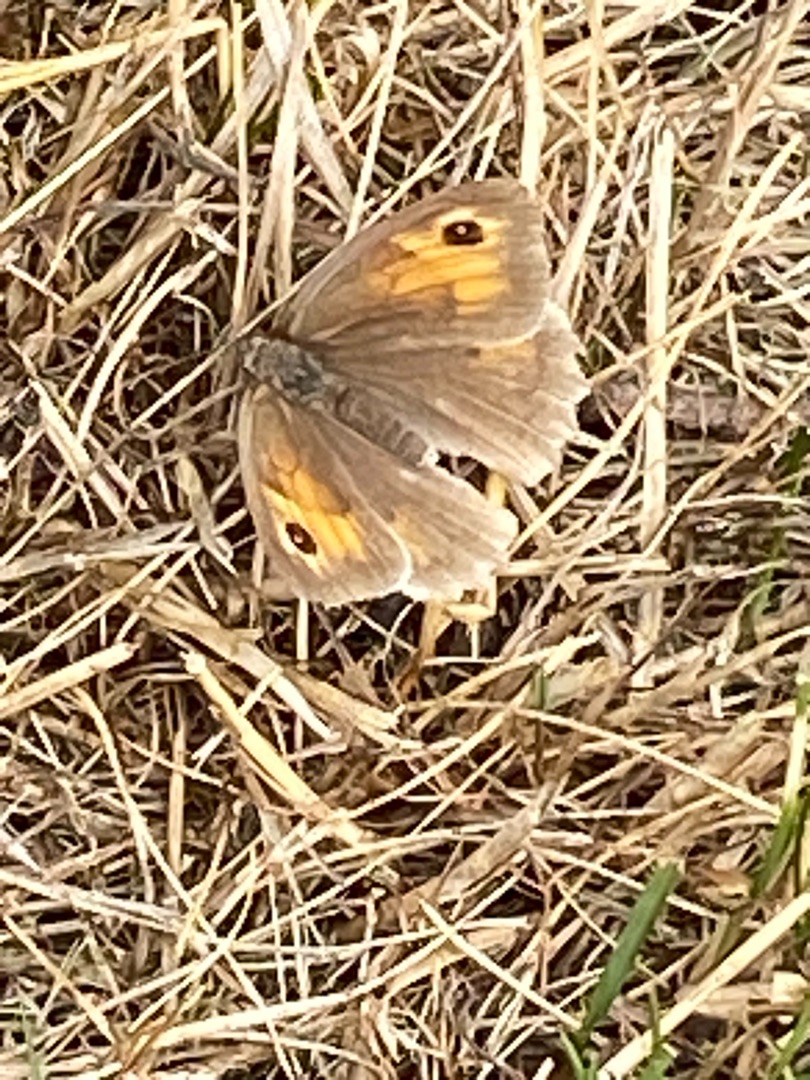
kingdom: Animalia
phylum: Arthropoda
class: Insecta
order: Lepidoptera
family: Nymphalidae
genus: Maniola
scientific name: Maniola jurtina
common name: Græsrandøje
